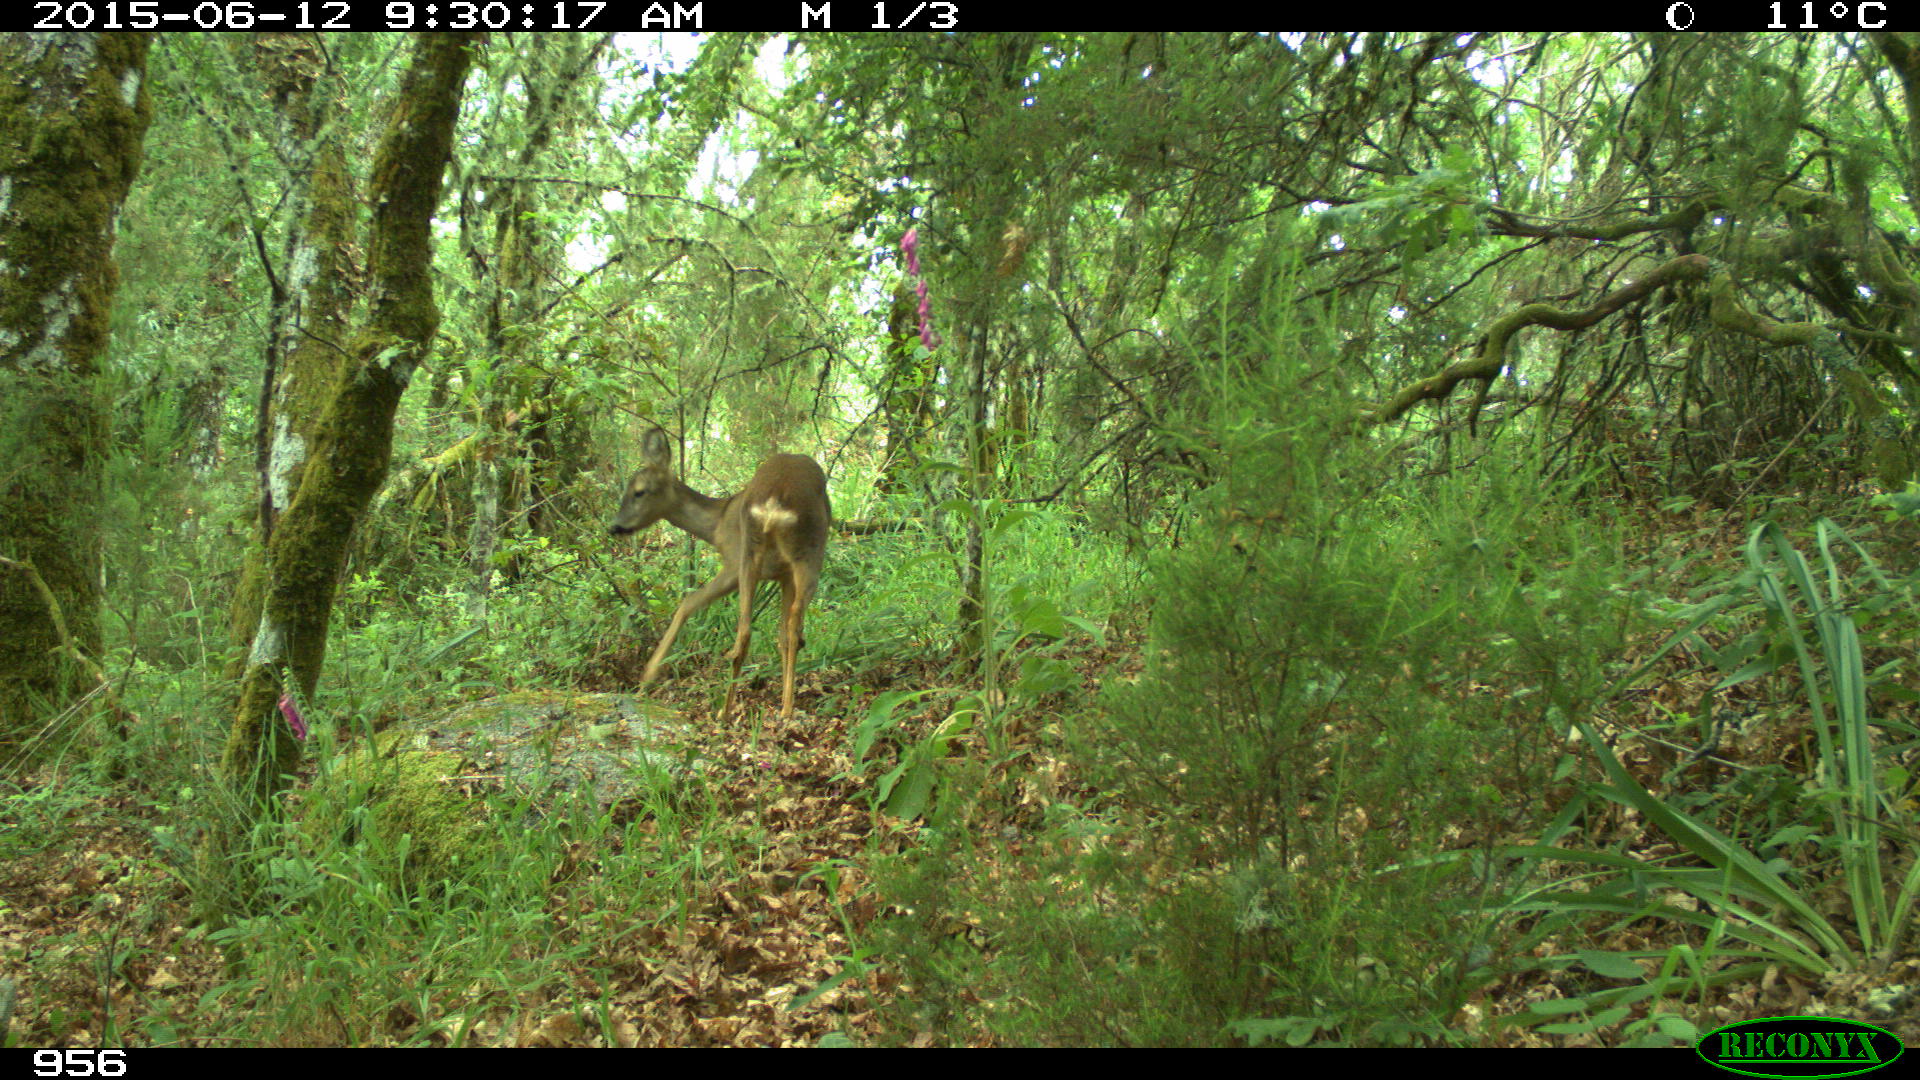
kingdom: Animalia
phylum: Chordata
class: Mammalia
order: Artiodactyla
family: Cervidae
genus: Capreolus
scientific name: Capreolus capreolus
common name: Western roe deer
